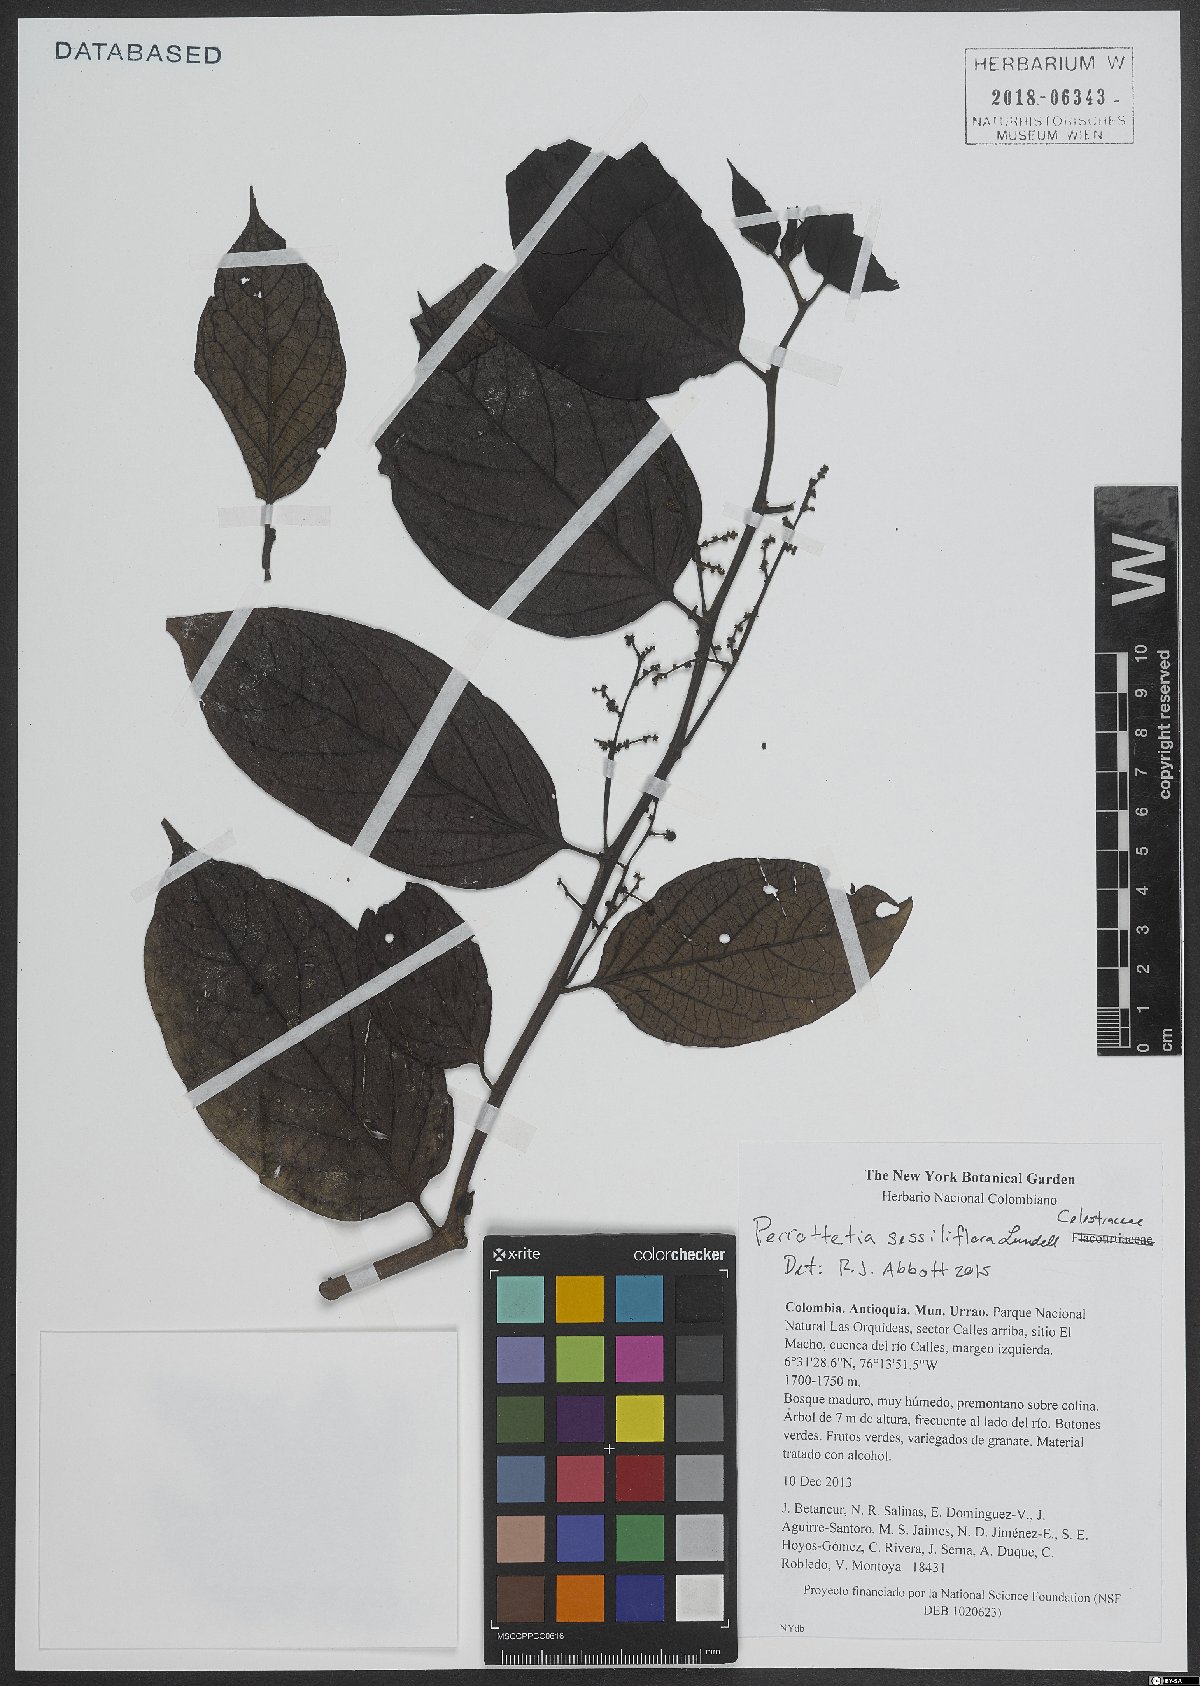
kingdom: Plantae
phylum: Tracheophyta
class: Magnoliopsida
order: Huerteales
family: Dipentodontaceae
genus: Perrottetia
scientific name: Perrottetia sessiliflora
